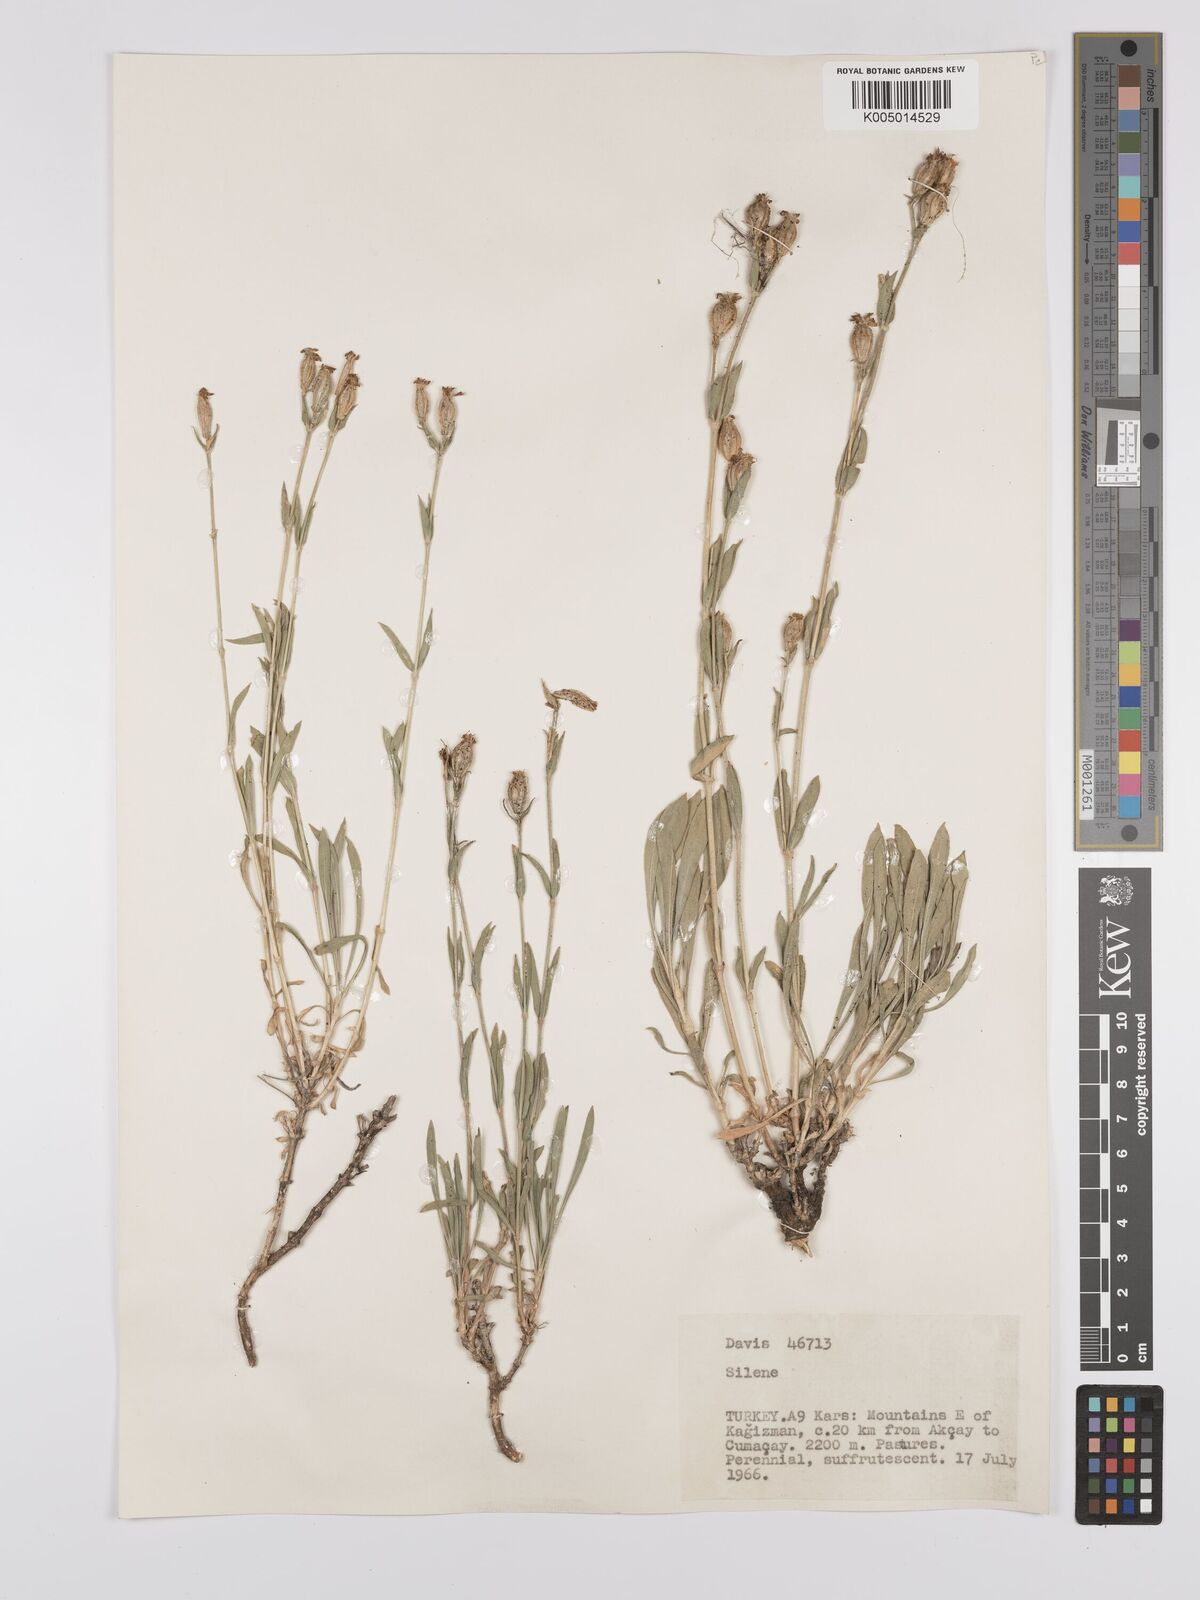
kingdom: Plantae
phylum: Tracheophyta
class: Magnoliopsida
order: Caryophyllales
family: Caryophyllaceae
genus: Silene
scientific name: Silene
